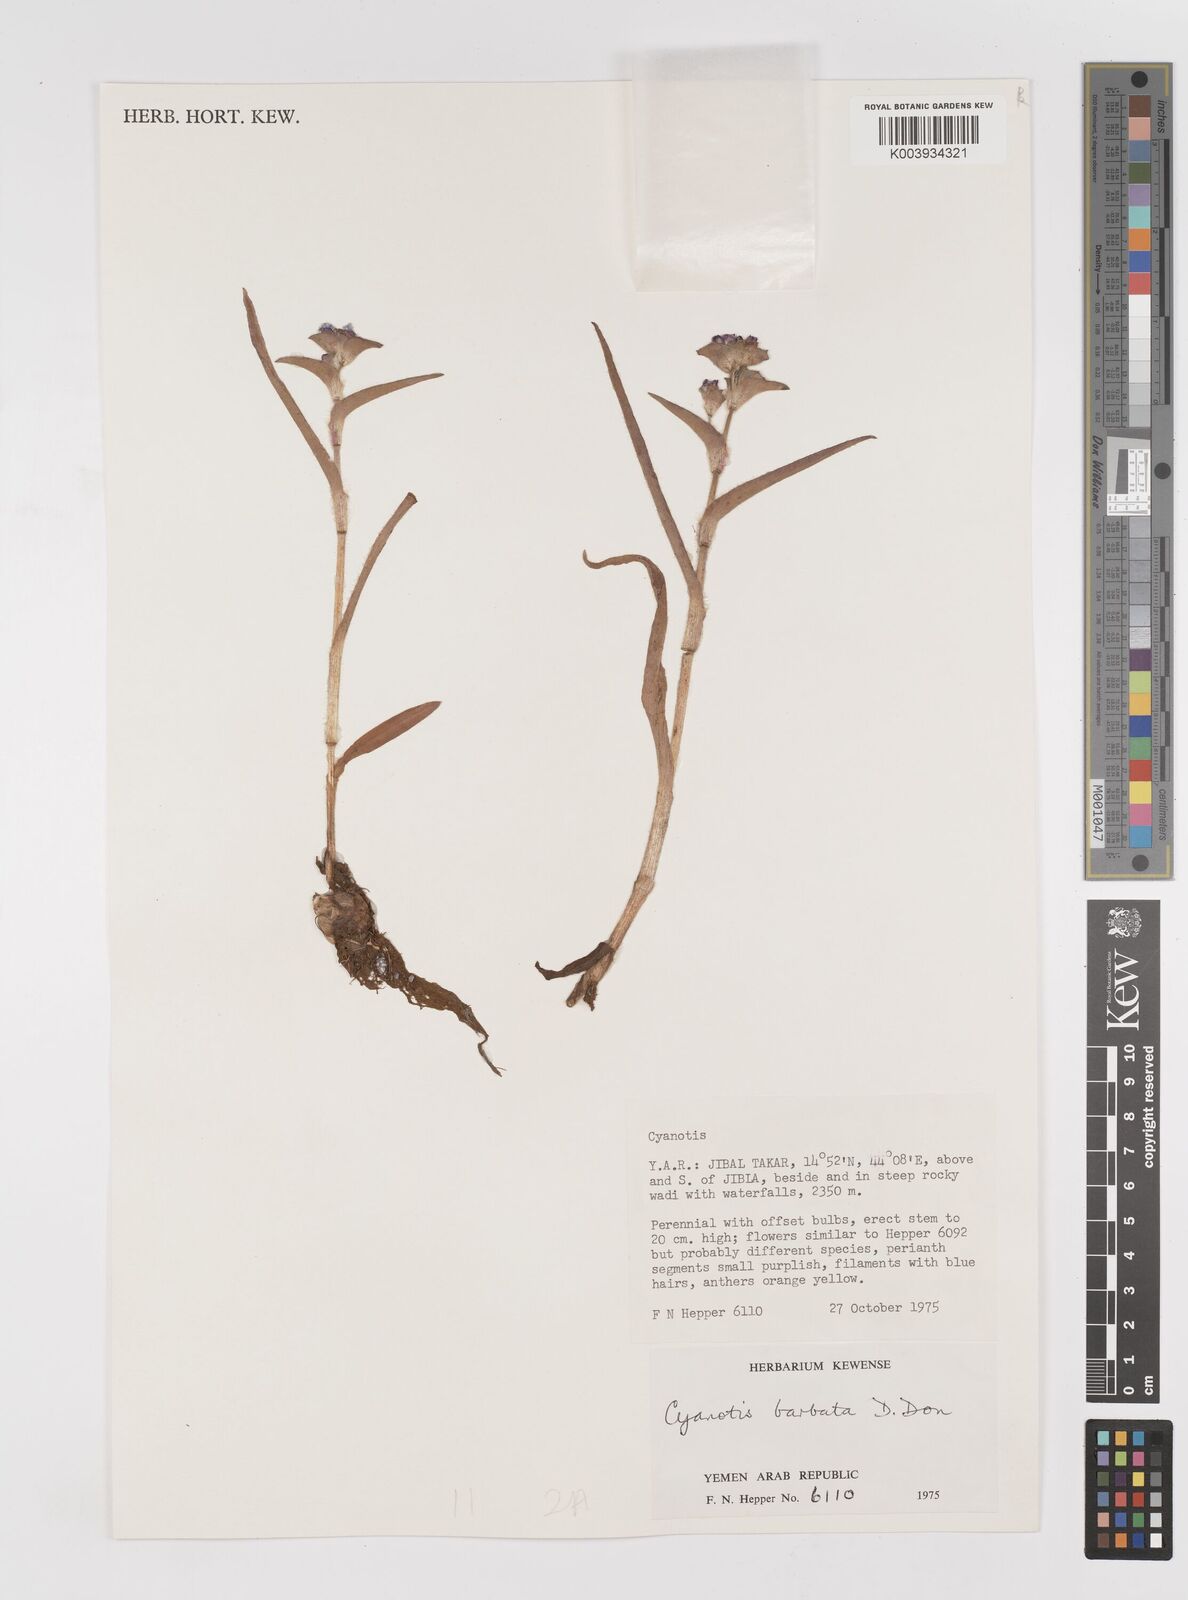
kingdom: Plantae
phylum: Tracheophyta
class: Liliopsida
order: Commelinales
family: Commelinaceae
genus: Cyanotis
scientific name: Cyanotis vaga
